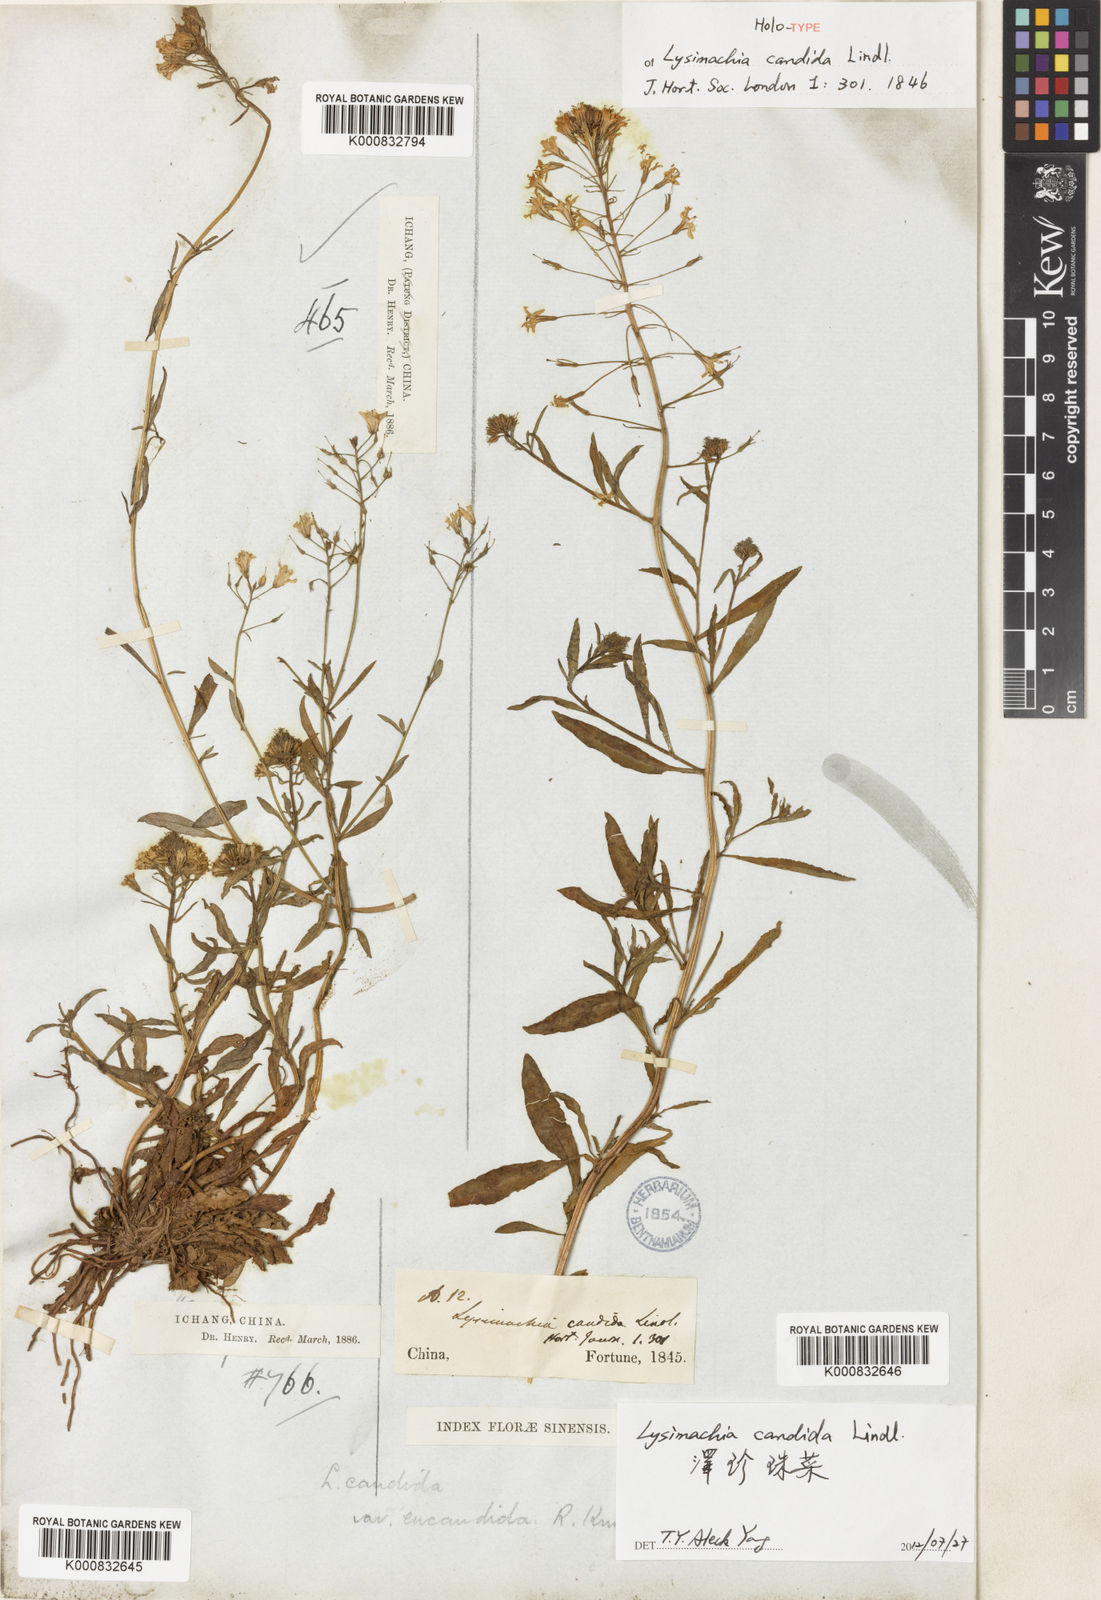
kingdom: Plantae
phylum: Tracheophyta
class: Magnoliopsida
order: Ericales
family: Primulaceae
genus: Lysimachia
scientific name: Lysimachia candida
